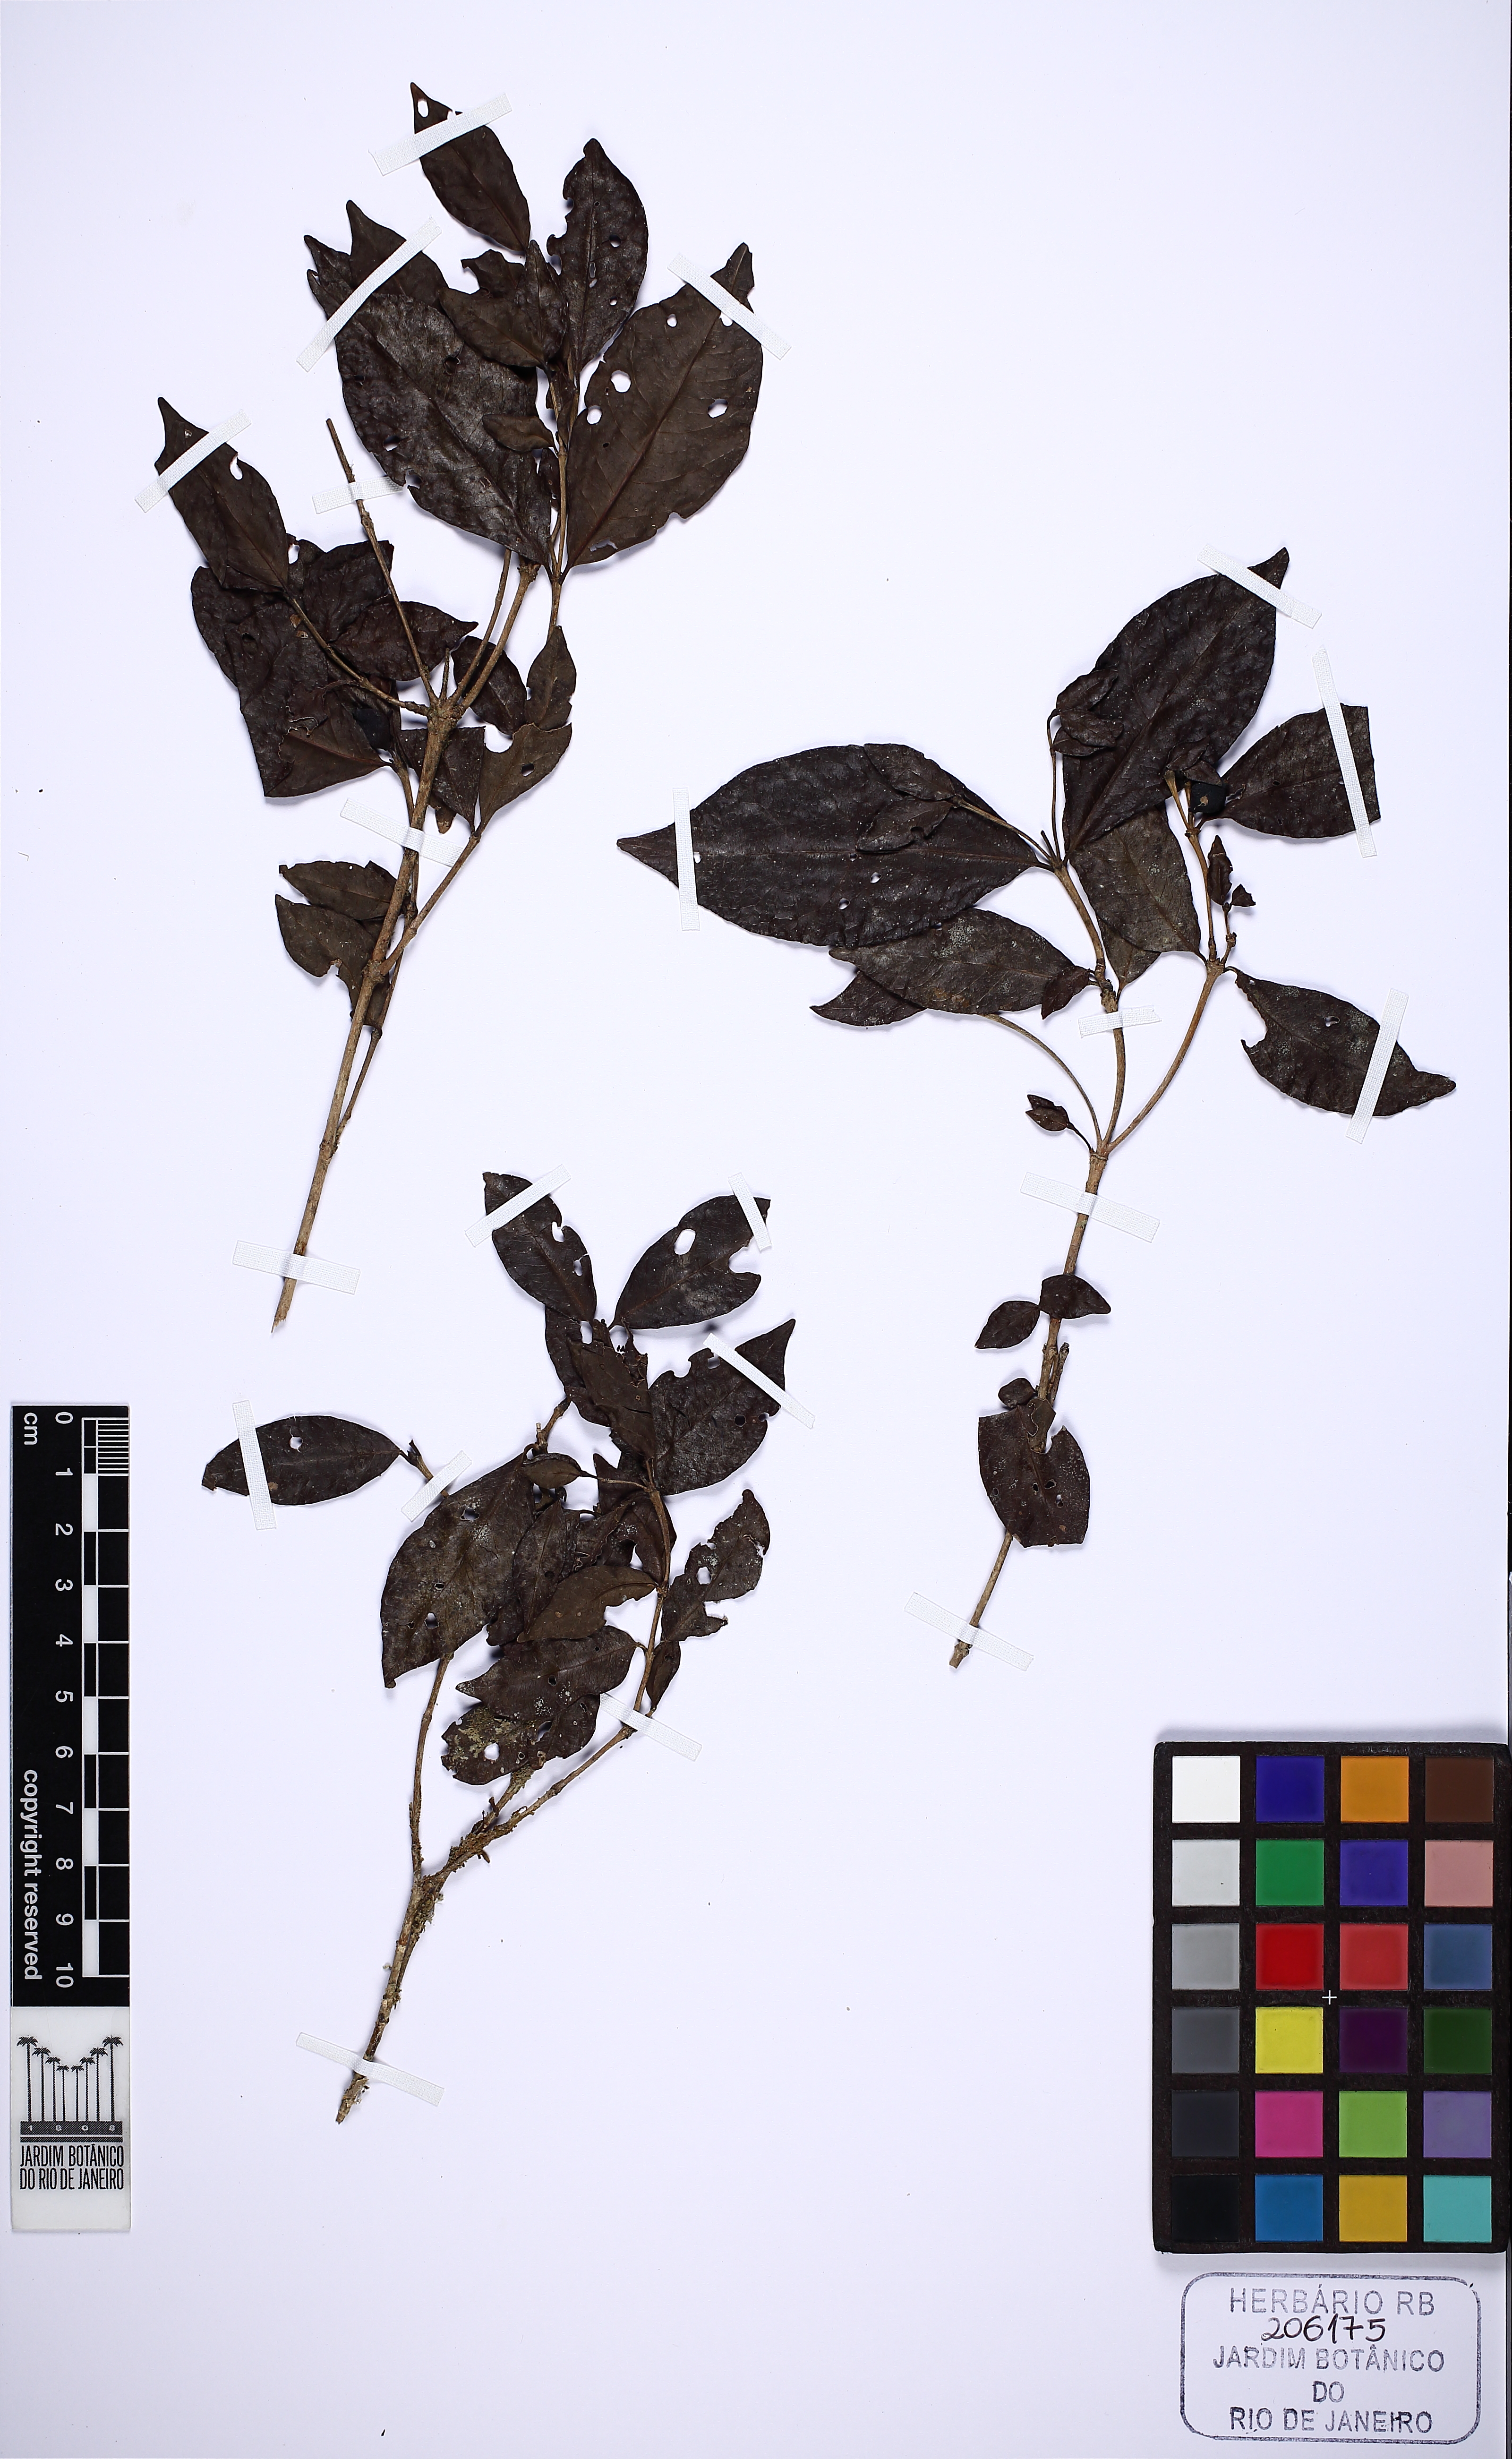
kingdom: Plantae
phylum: Tracheophyta
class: Magnoliopsida
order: Gentianales
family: Rubiaceae
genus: Cordiera
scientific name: Cordiera concolor
